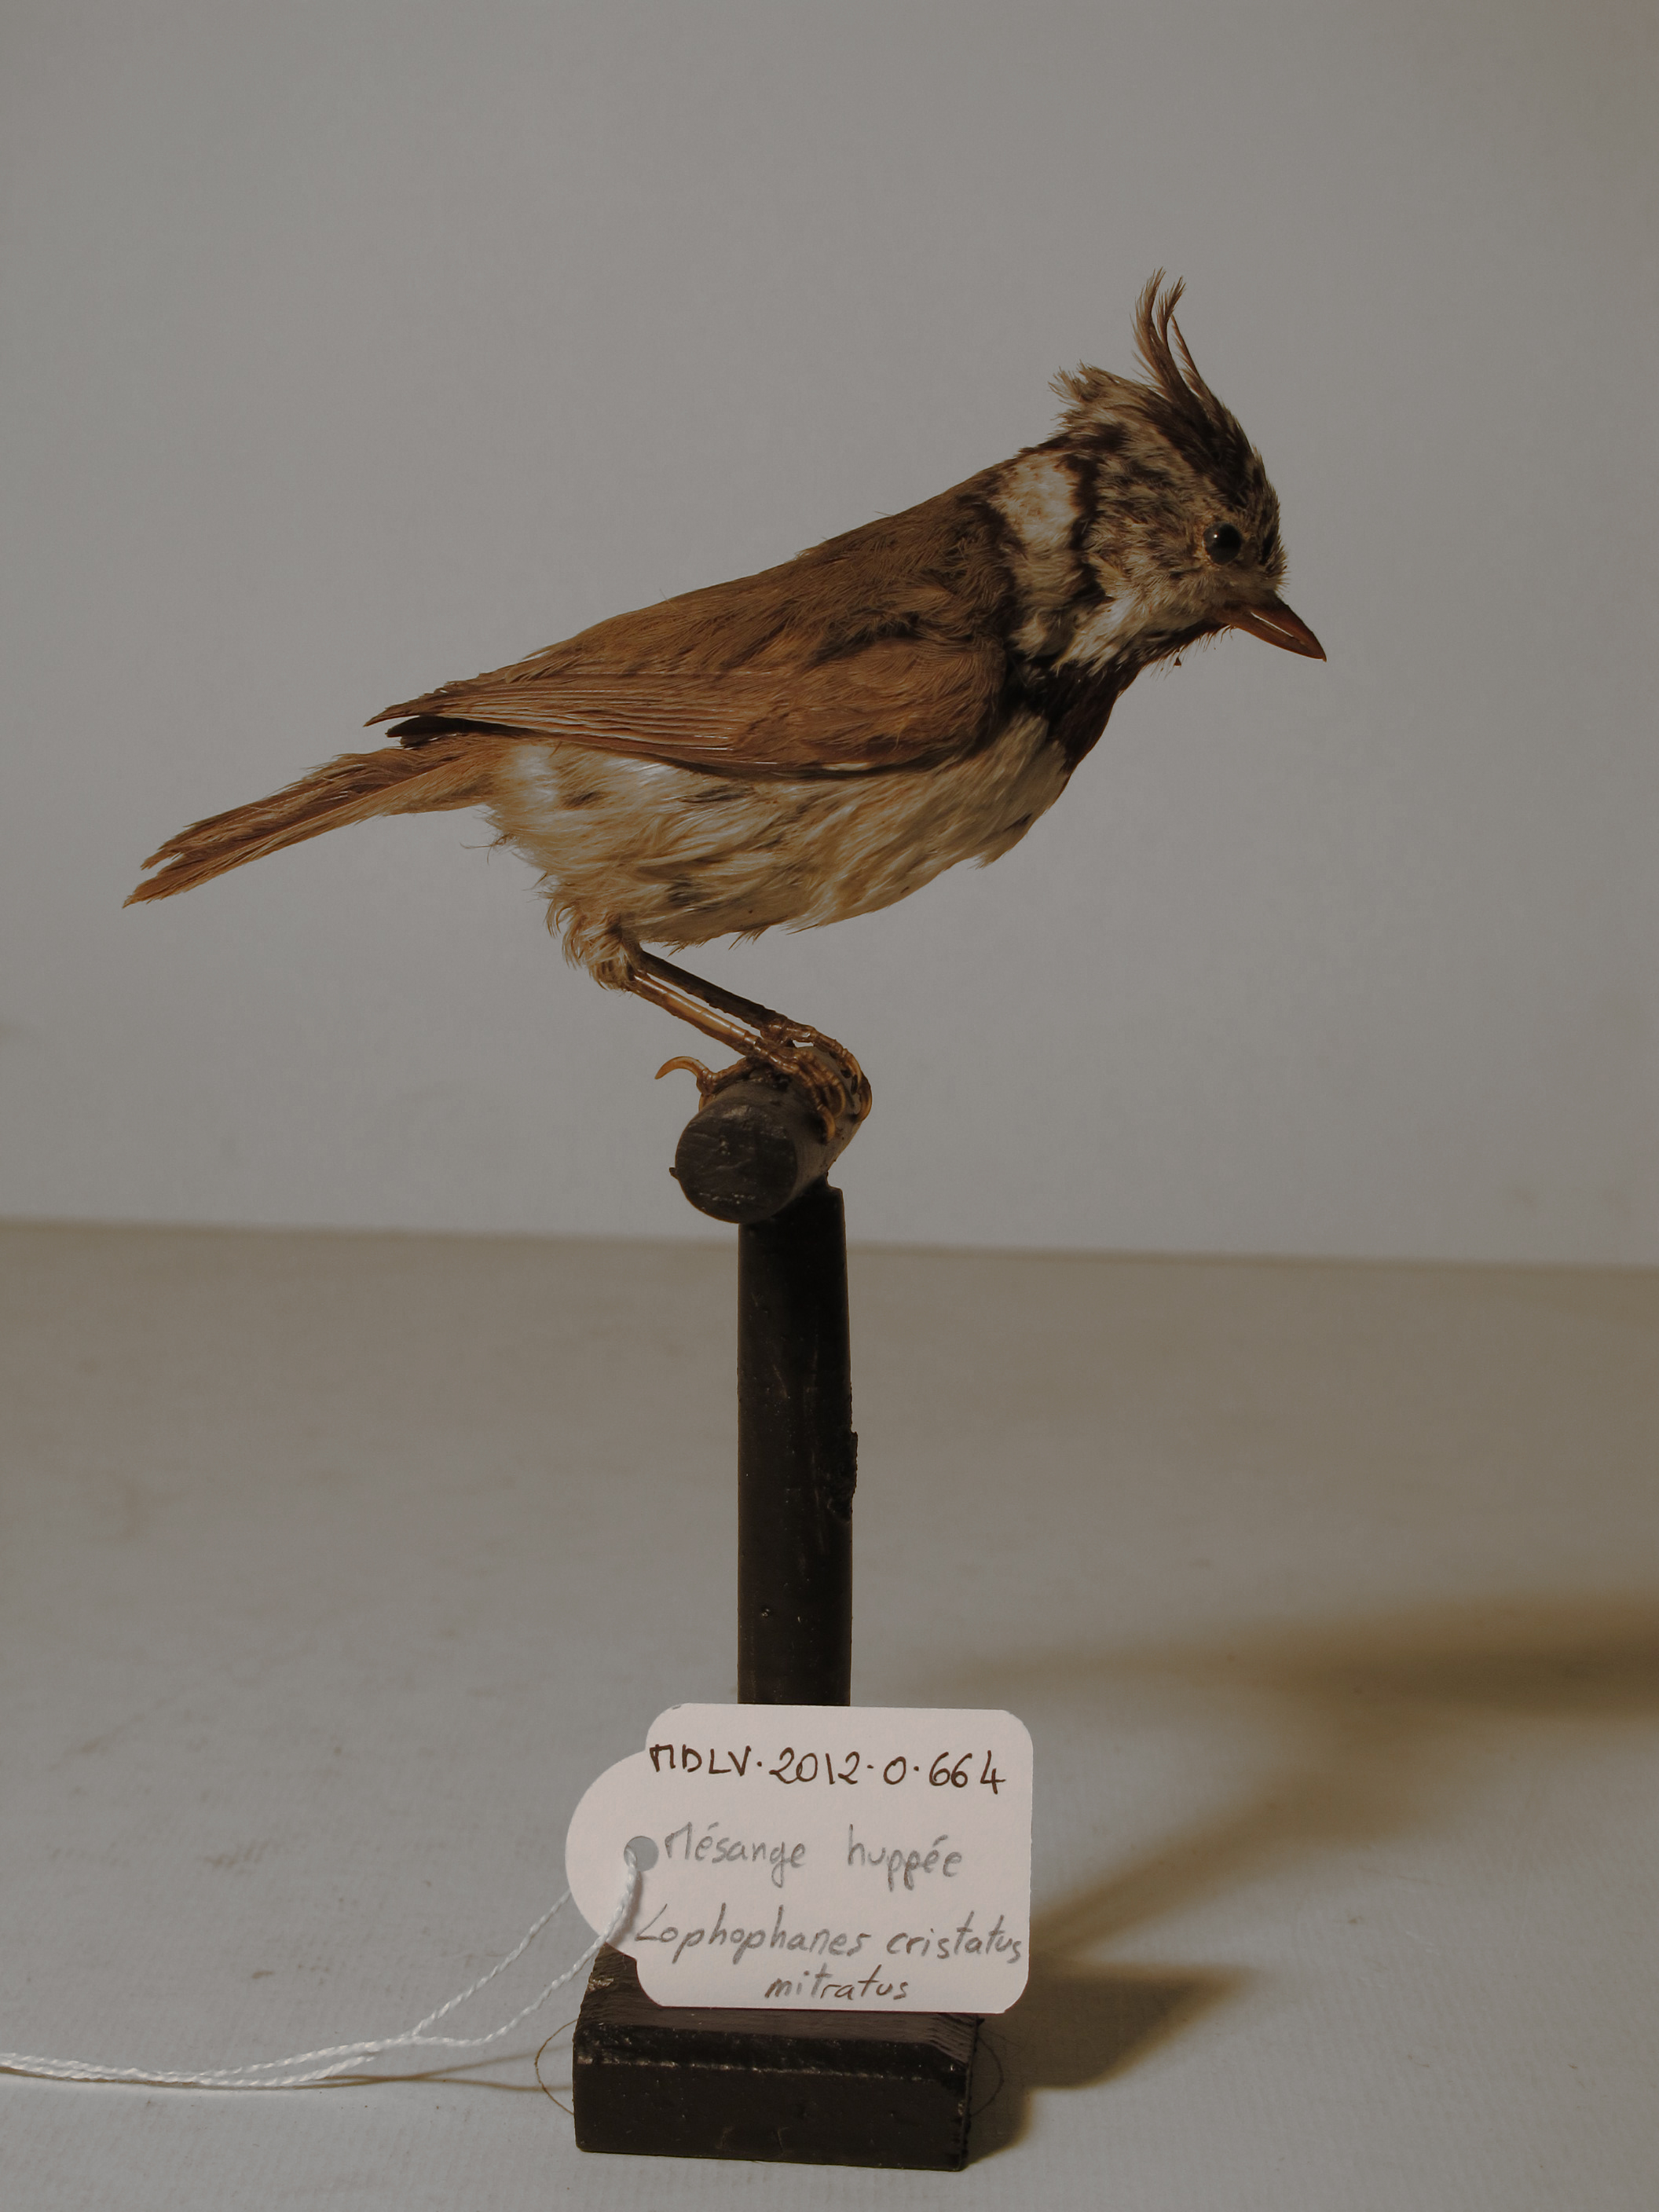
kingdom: Animalia
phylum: Chordata
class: Aves
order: Passeriformes
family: Paridae
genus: Lophophanes
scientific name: Lophophanes cristatus
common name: Grey-crested Tit
